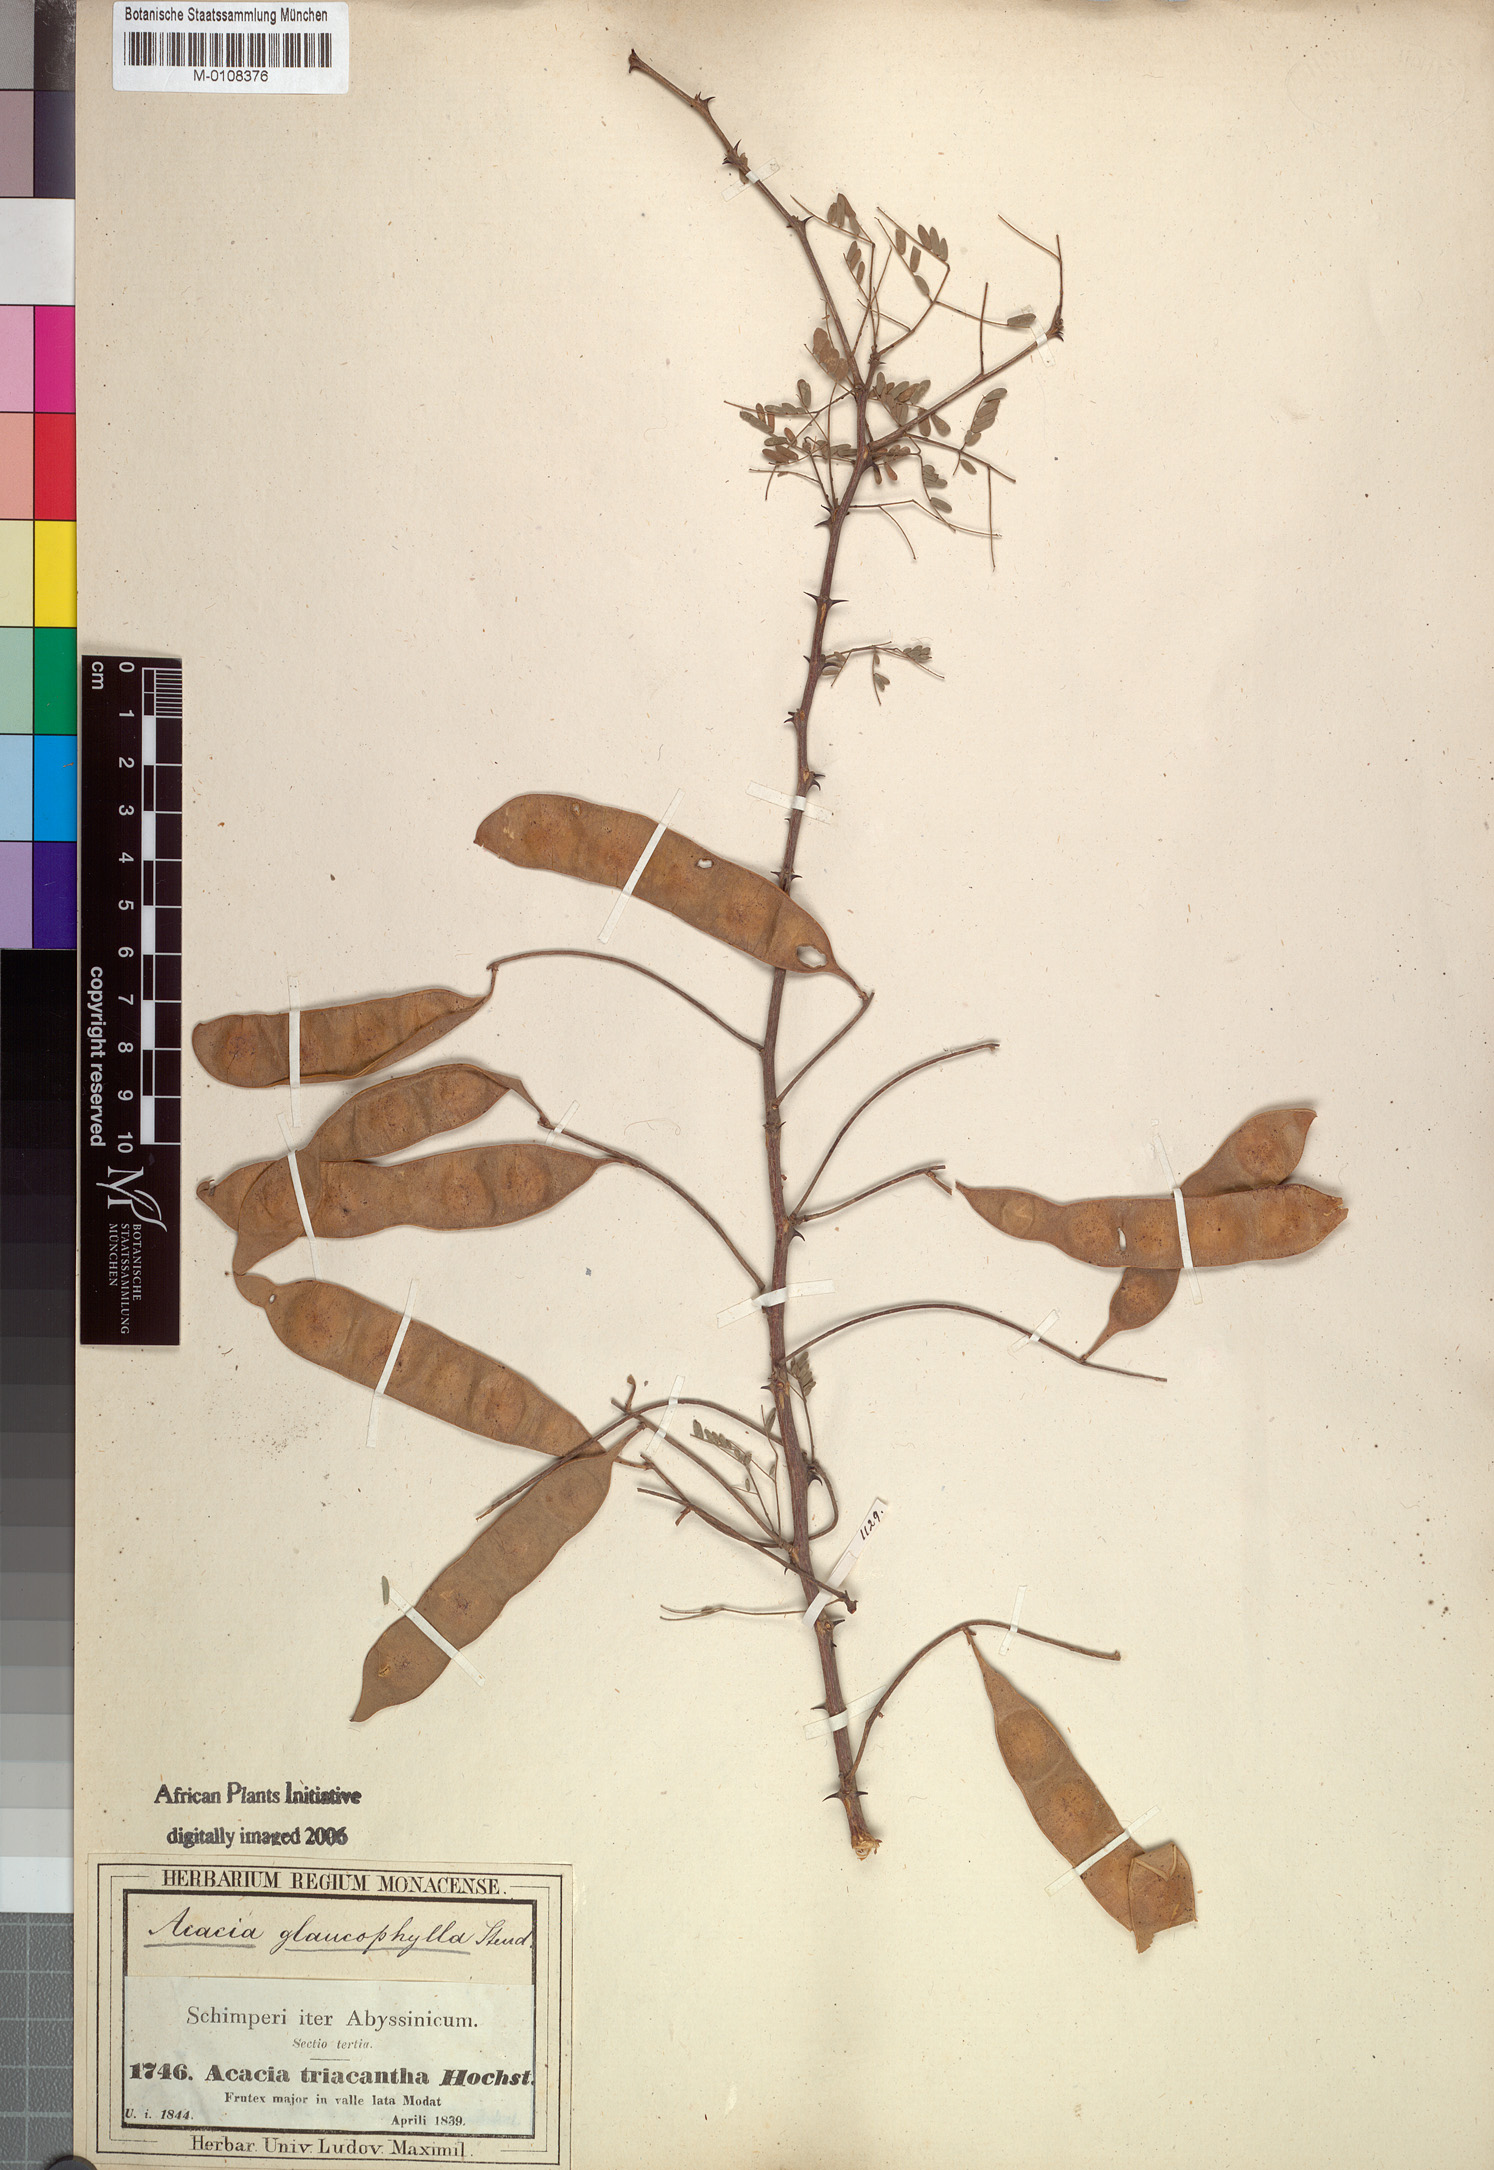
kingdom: Plantae
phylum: Tracheophyta
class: Magnoliopsida
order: Fabales
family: Fabaceae
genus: Senegalia
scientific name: Senegalia asak
